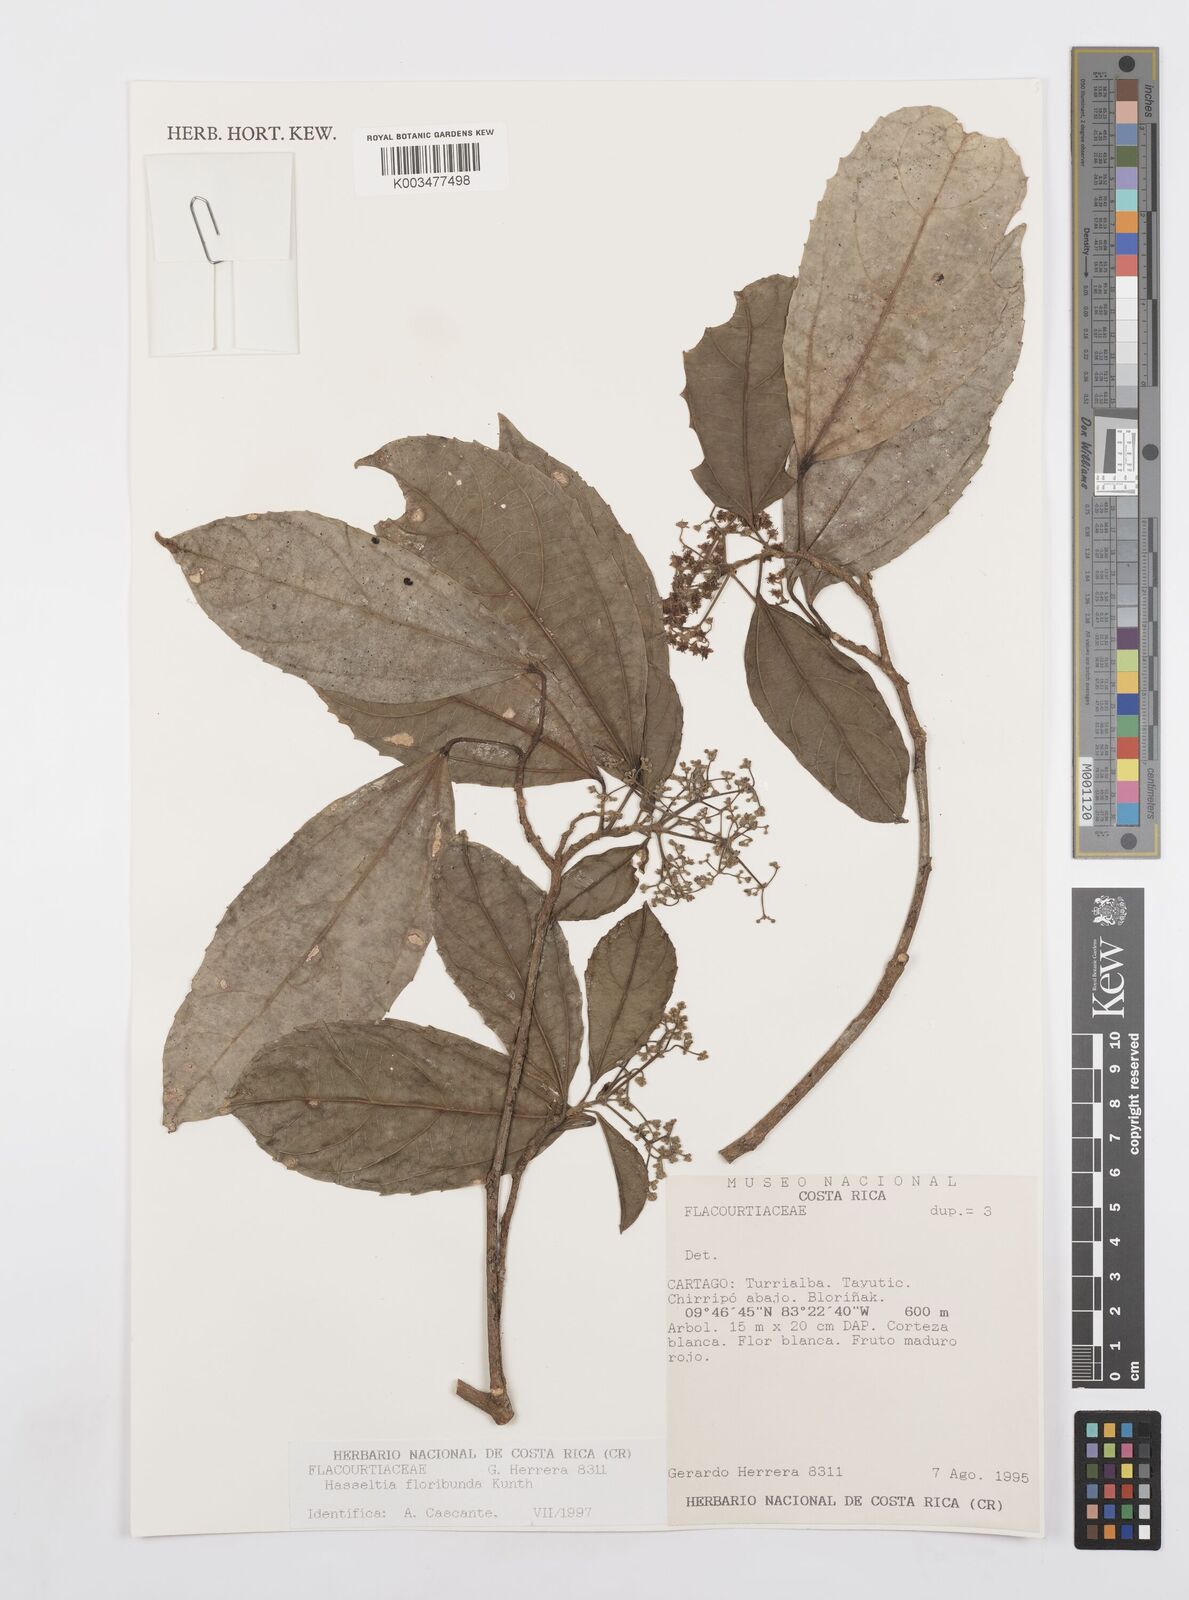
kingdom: Plantae
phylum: Tracheophyta
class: Magnoliopsida
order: Malpighiales
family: Salicaceae
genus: Hasseltia
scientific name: Hasseltia floribunda
